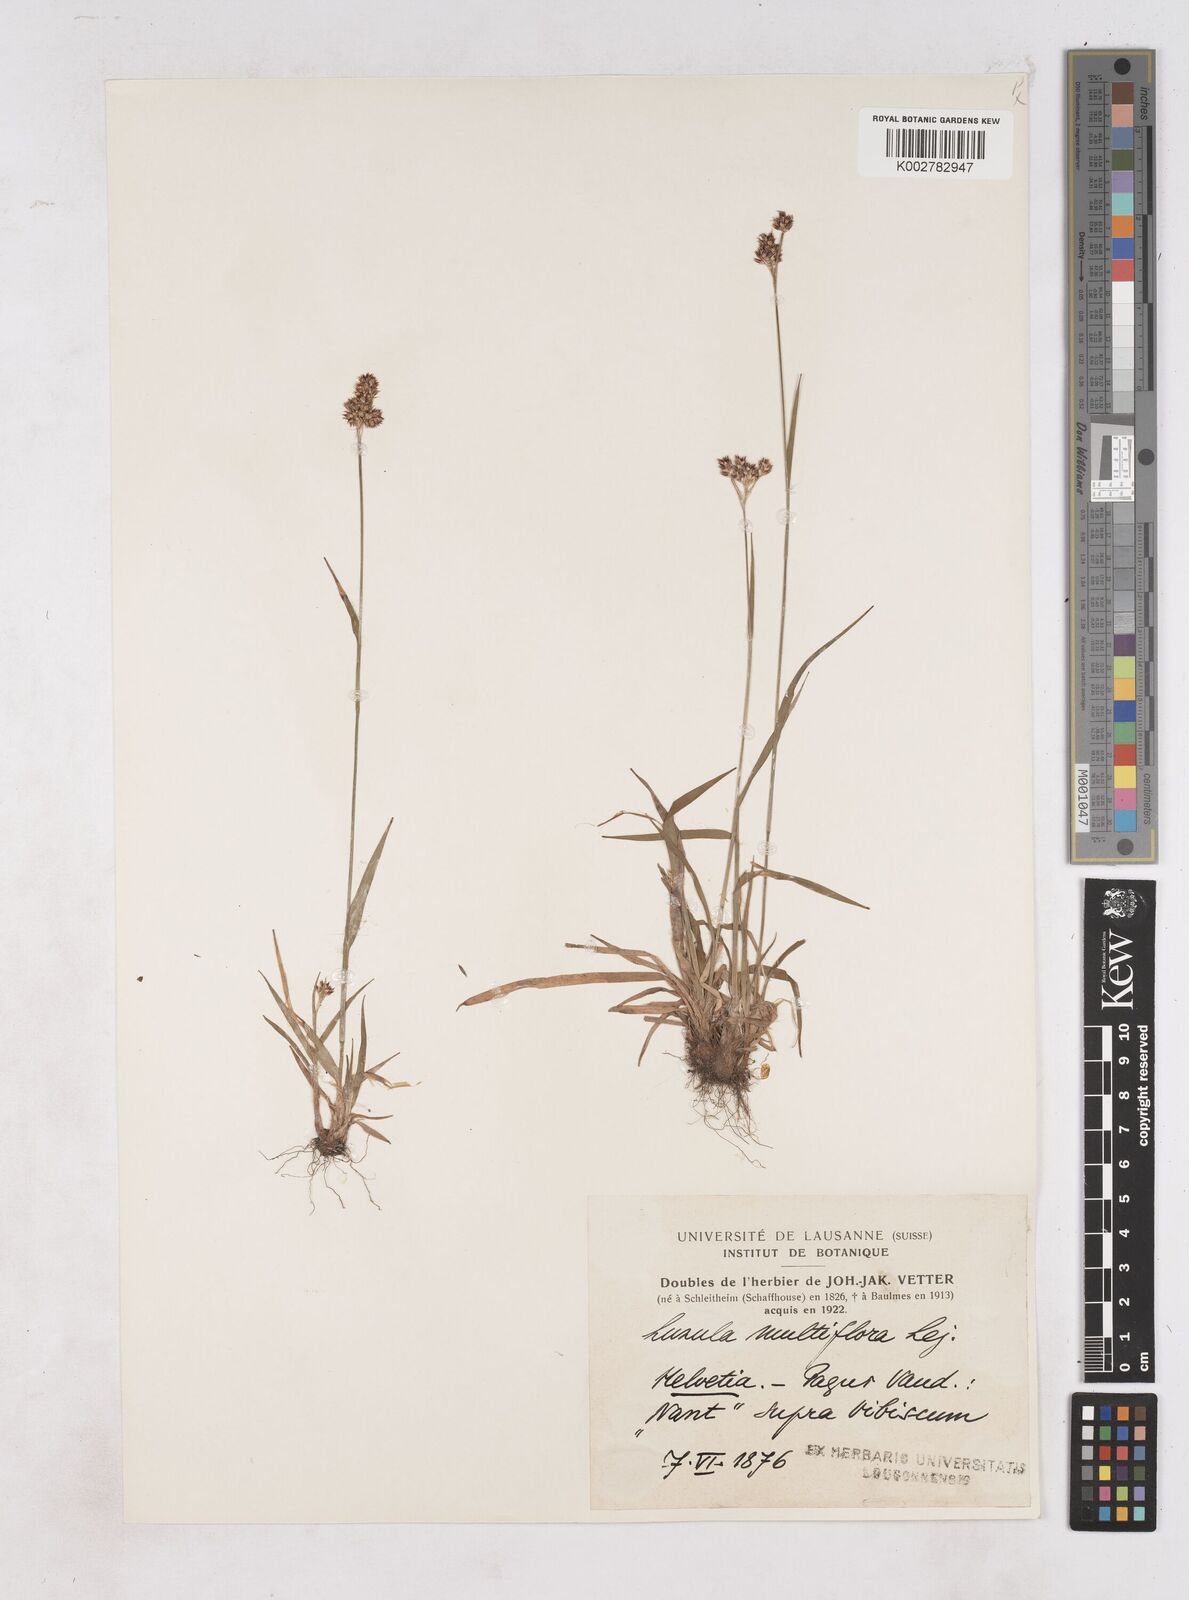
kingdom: Plantae
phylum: Tracheophyta
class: Liliopsida
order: Poales
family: Juncaceae
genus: Luzula
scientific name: Luzula campestris
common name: Field wood-rush
